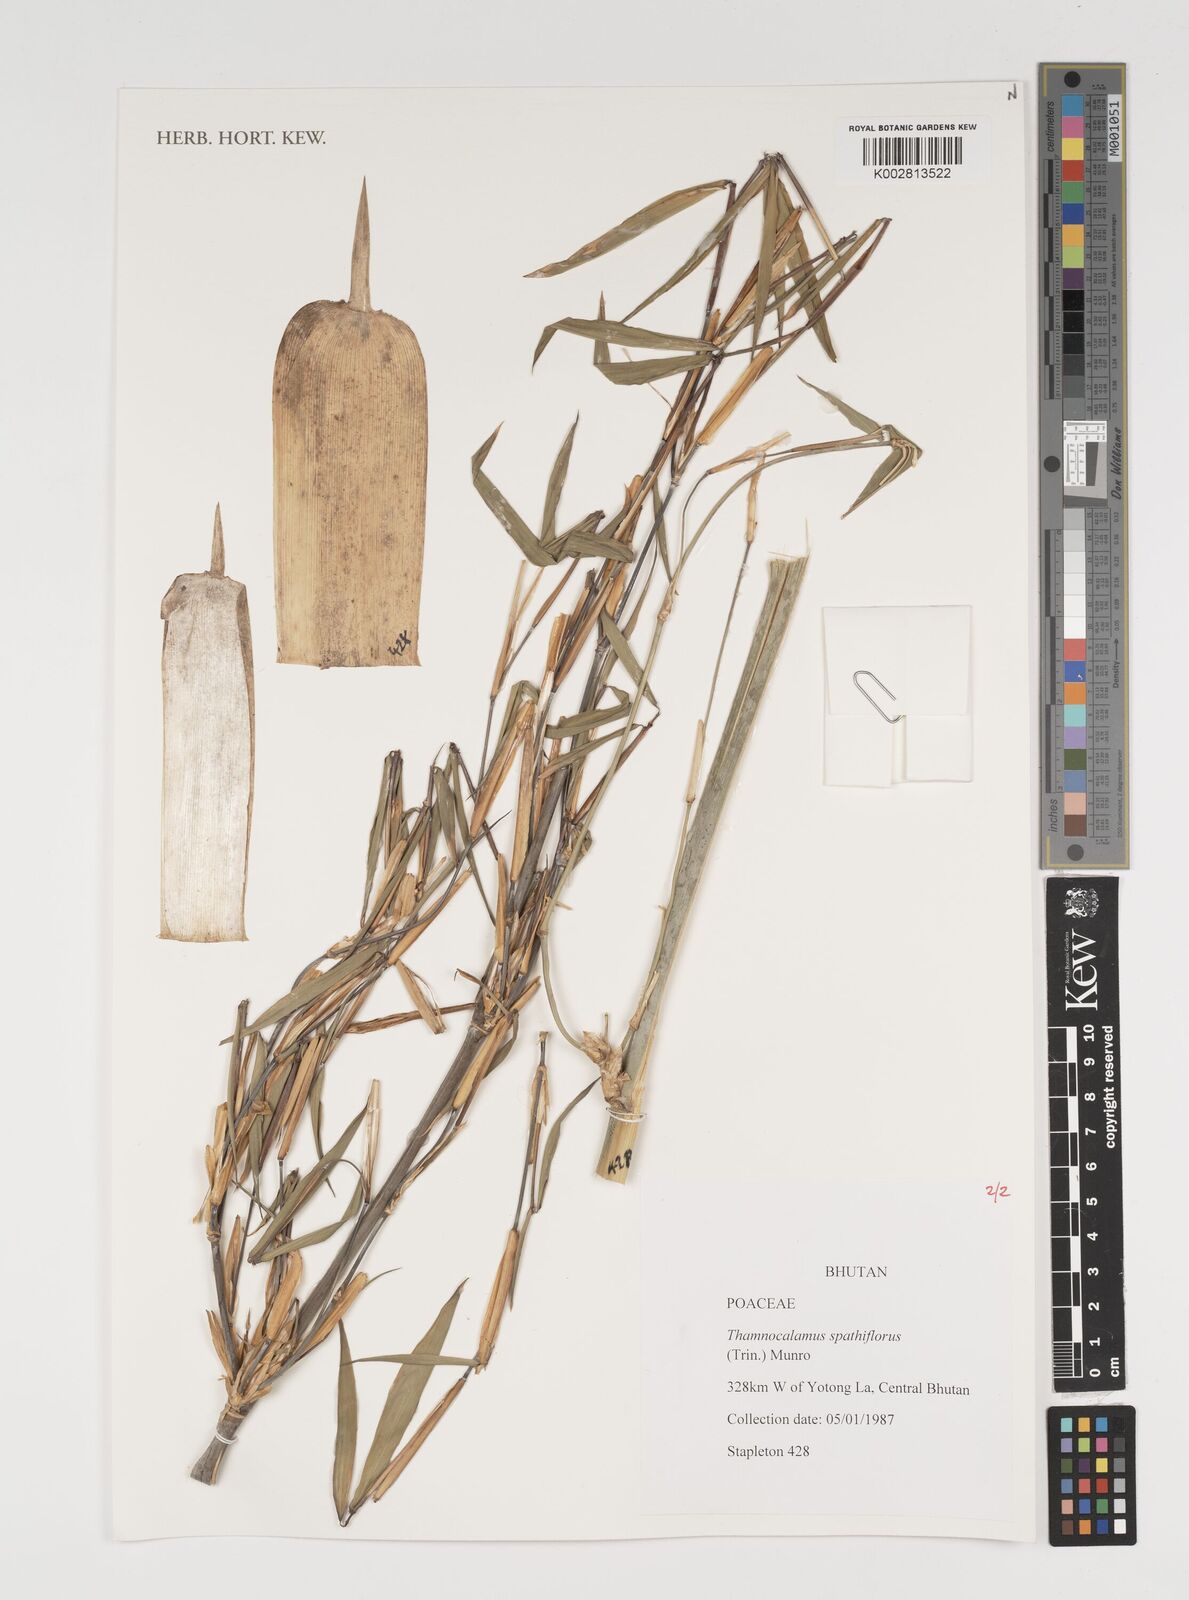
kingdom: Plantae
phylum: Tracheophyta
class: Liliopsida
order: Poales
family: Poaceae
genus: Thamnocalamus
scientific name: Thamnocalamus spathiflorus
